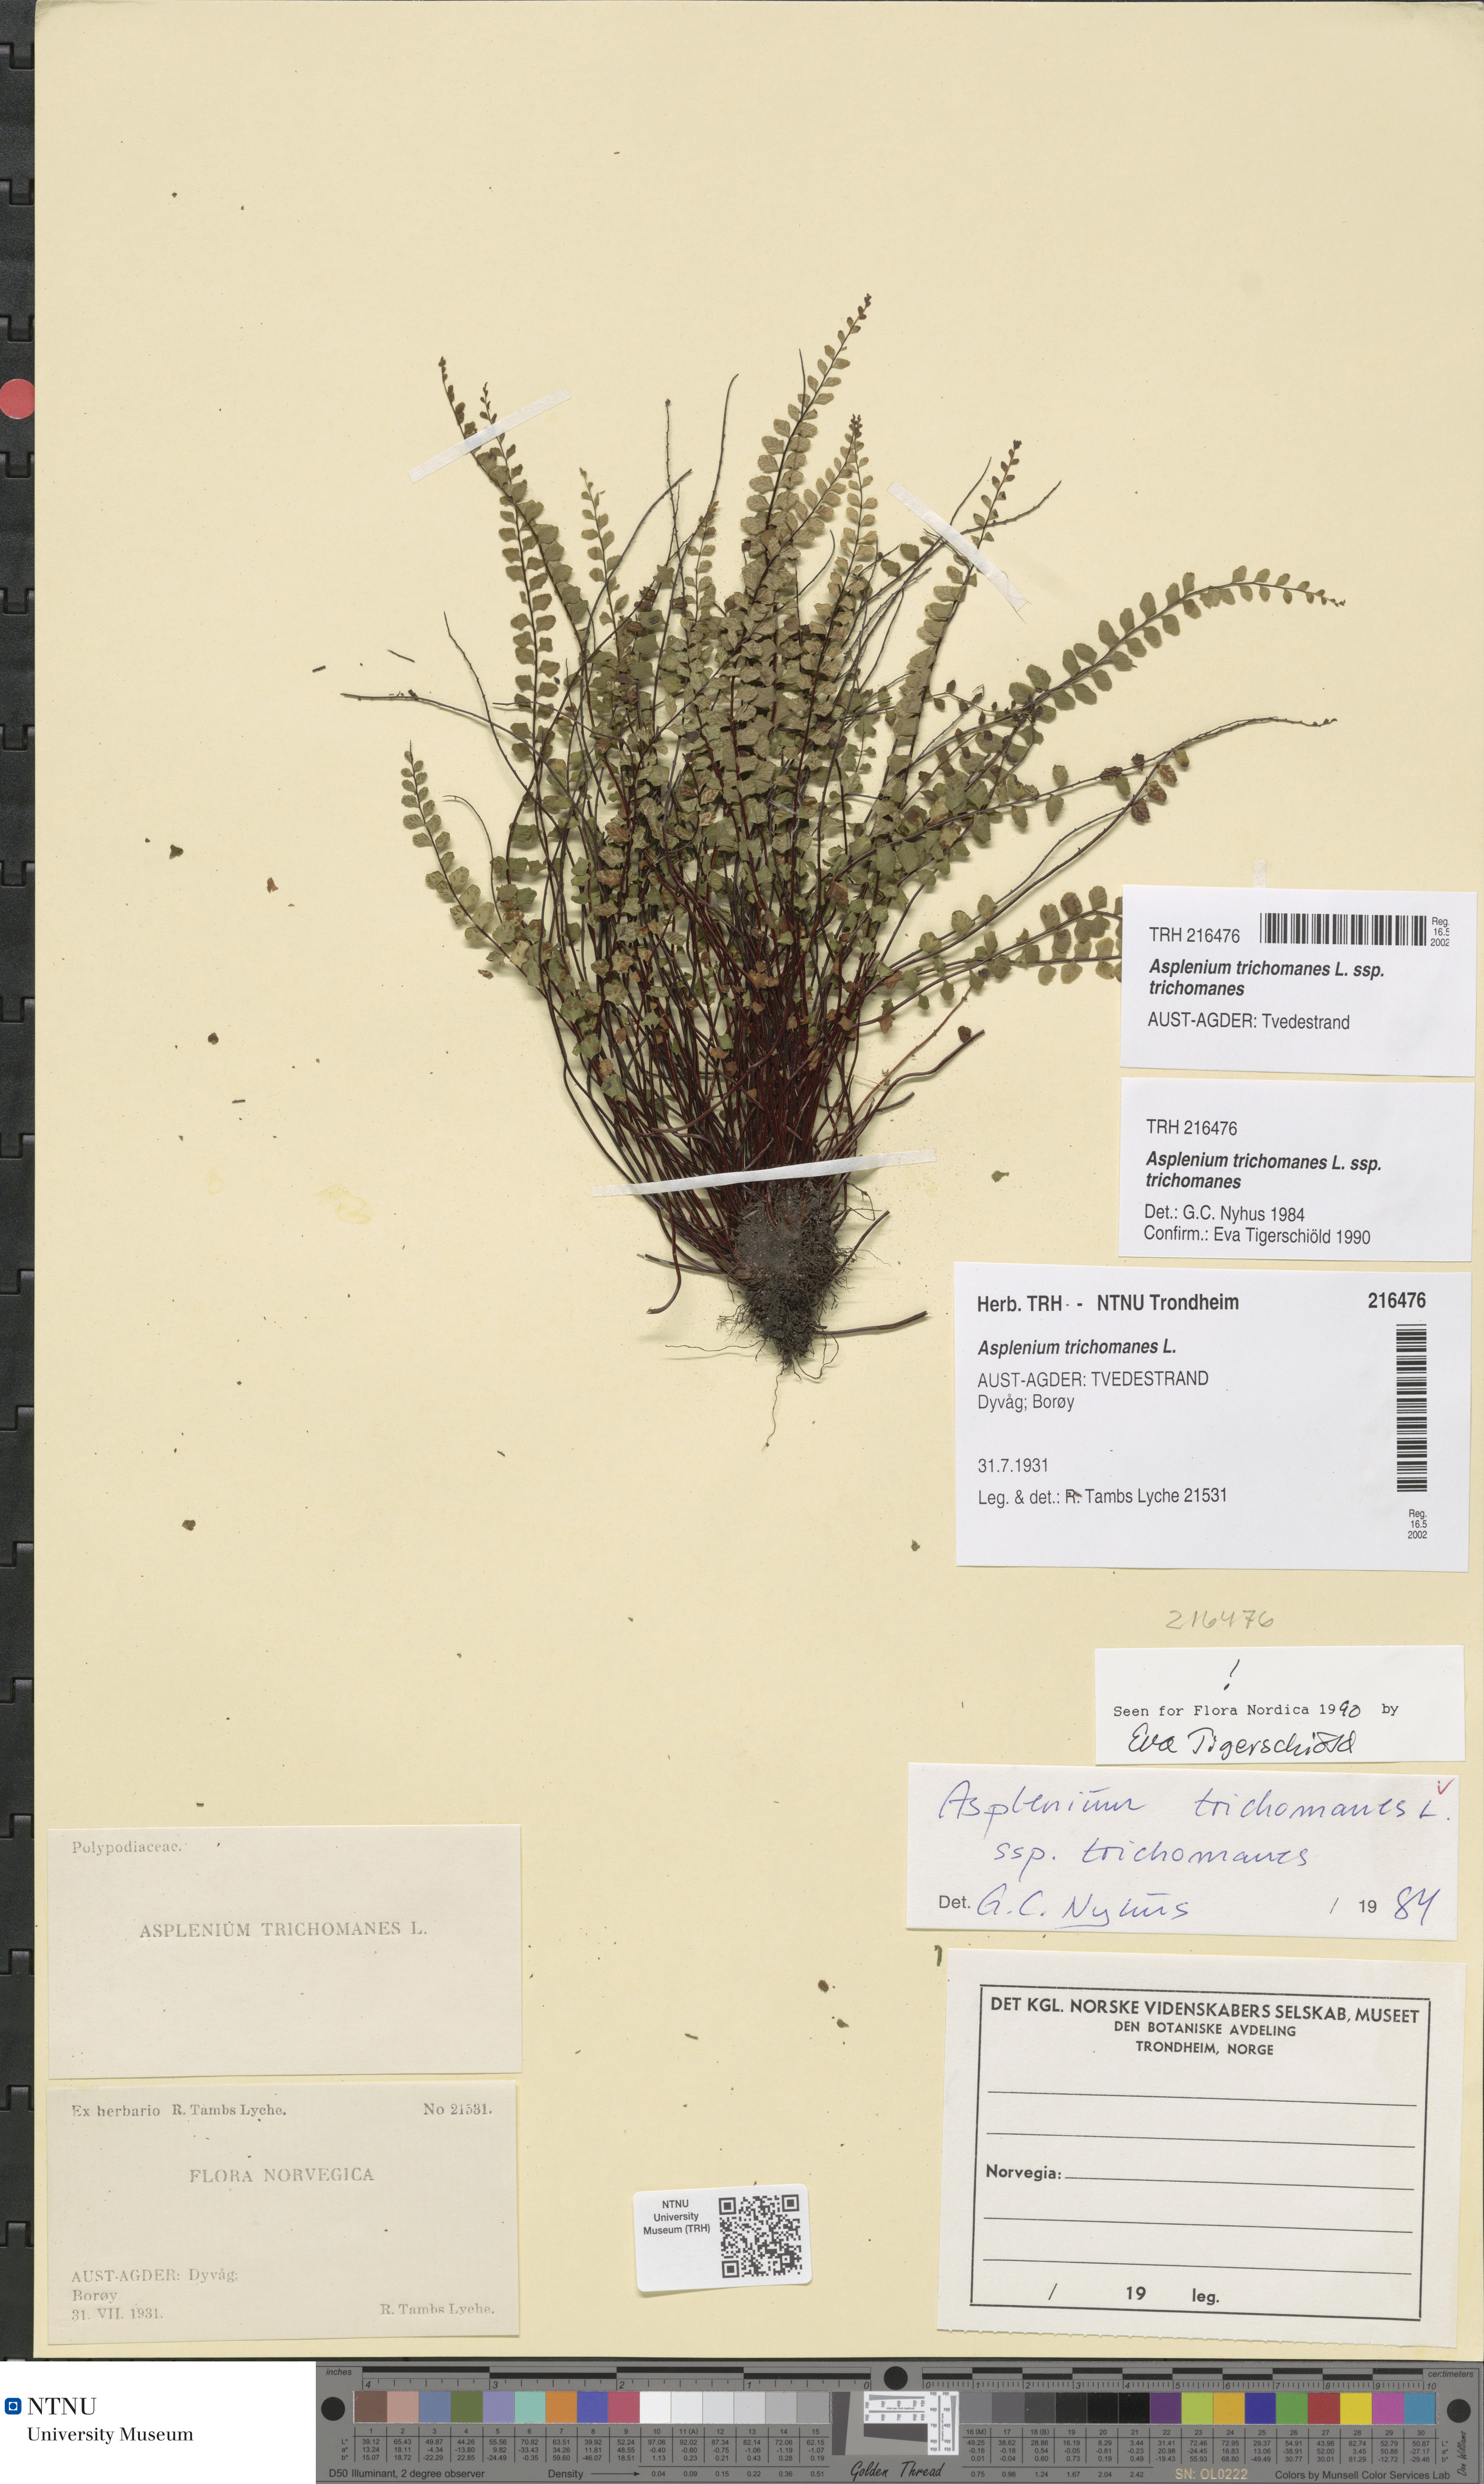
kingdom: Plantae
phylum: Tracheophyta
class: Polypodiopsida
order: Polypodiales
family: Aspleniaceae
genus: Asplenium
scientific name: Asplenium trichomanes
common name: Maidenhair spleenwort
